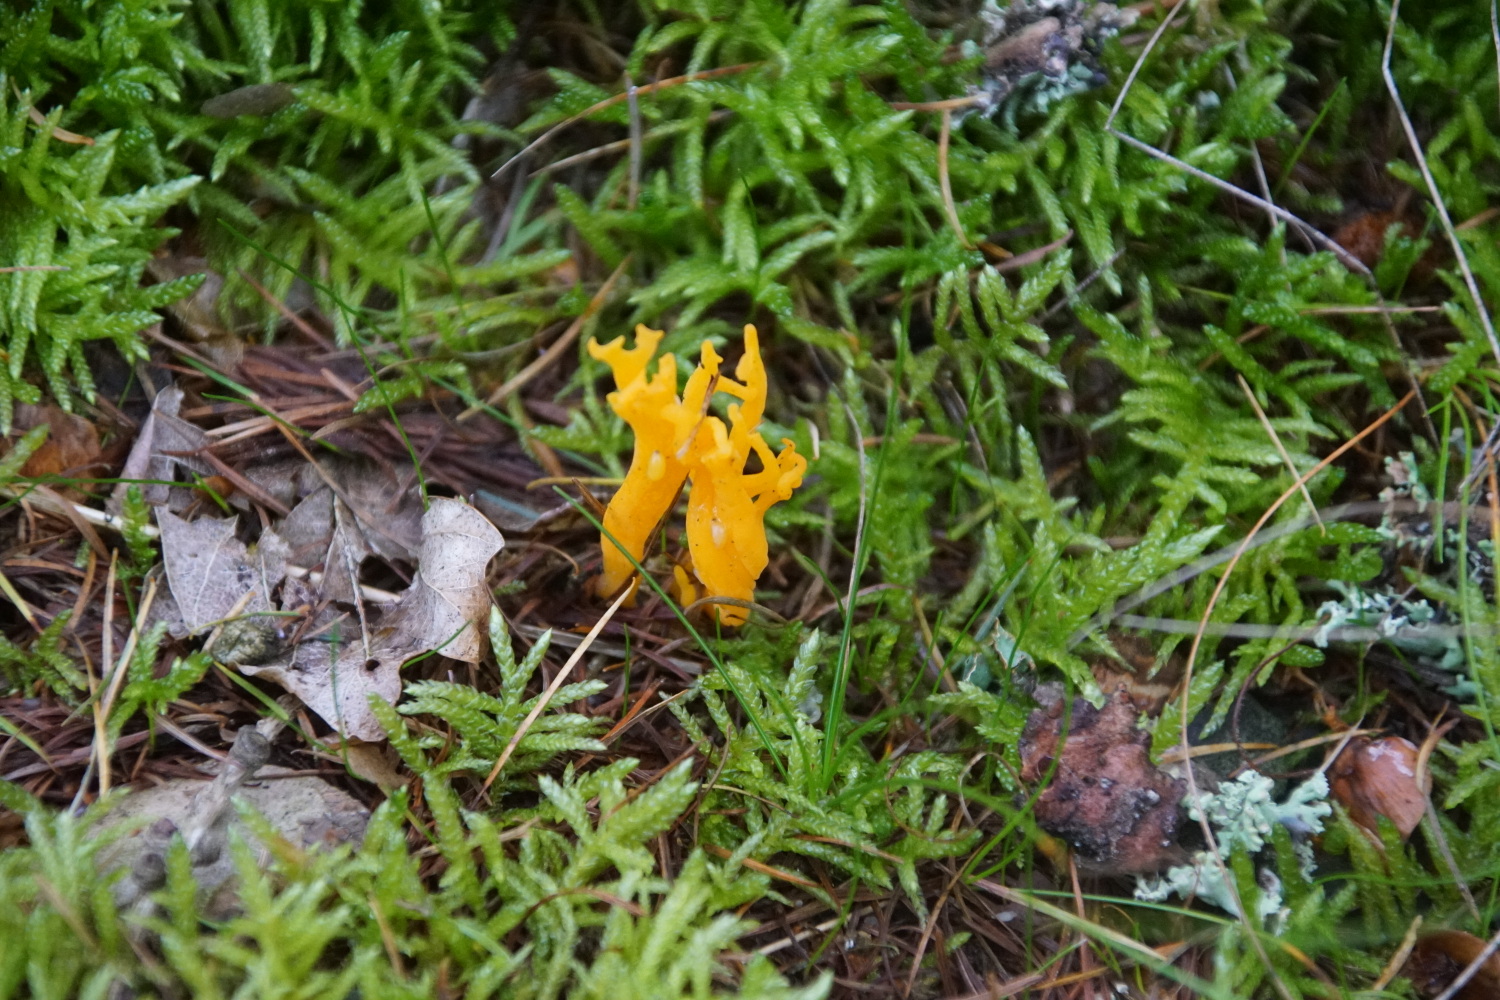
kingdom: Fungi
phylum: Basidiomycota
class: Dacrymycetes
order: Dacrymycetales
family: Dacrymycetaceae
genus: Calocera
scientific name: Calocera viscosa
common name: almindelig guldgaffel
